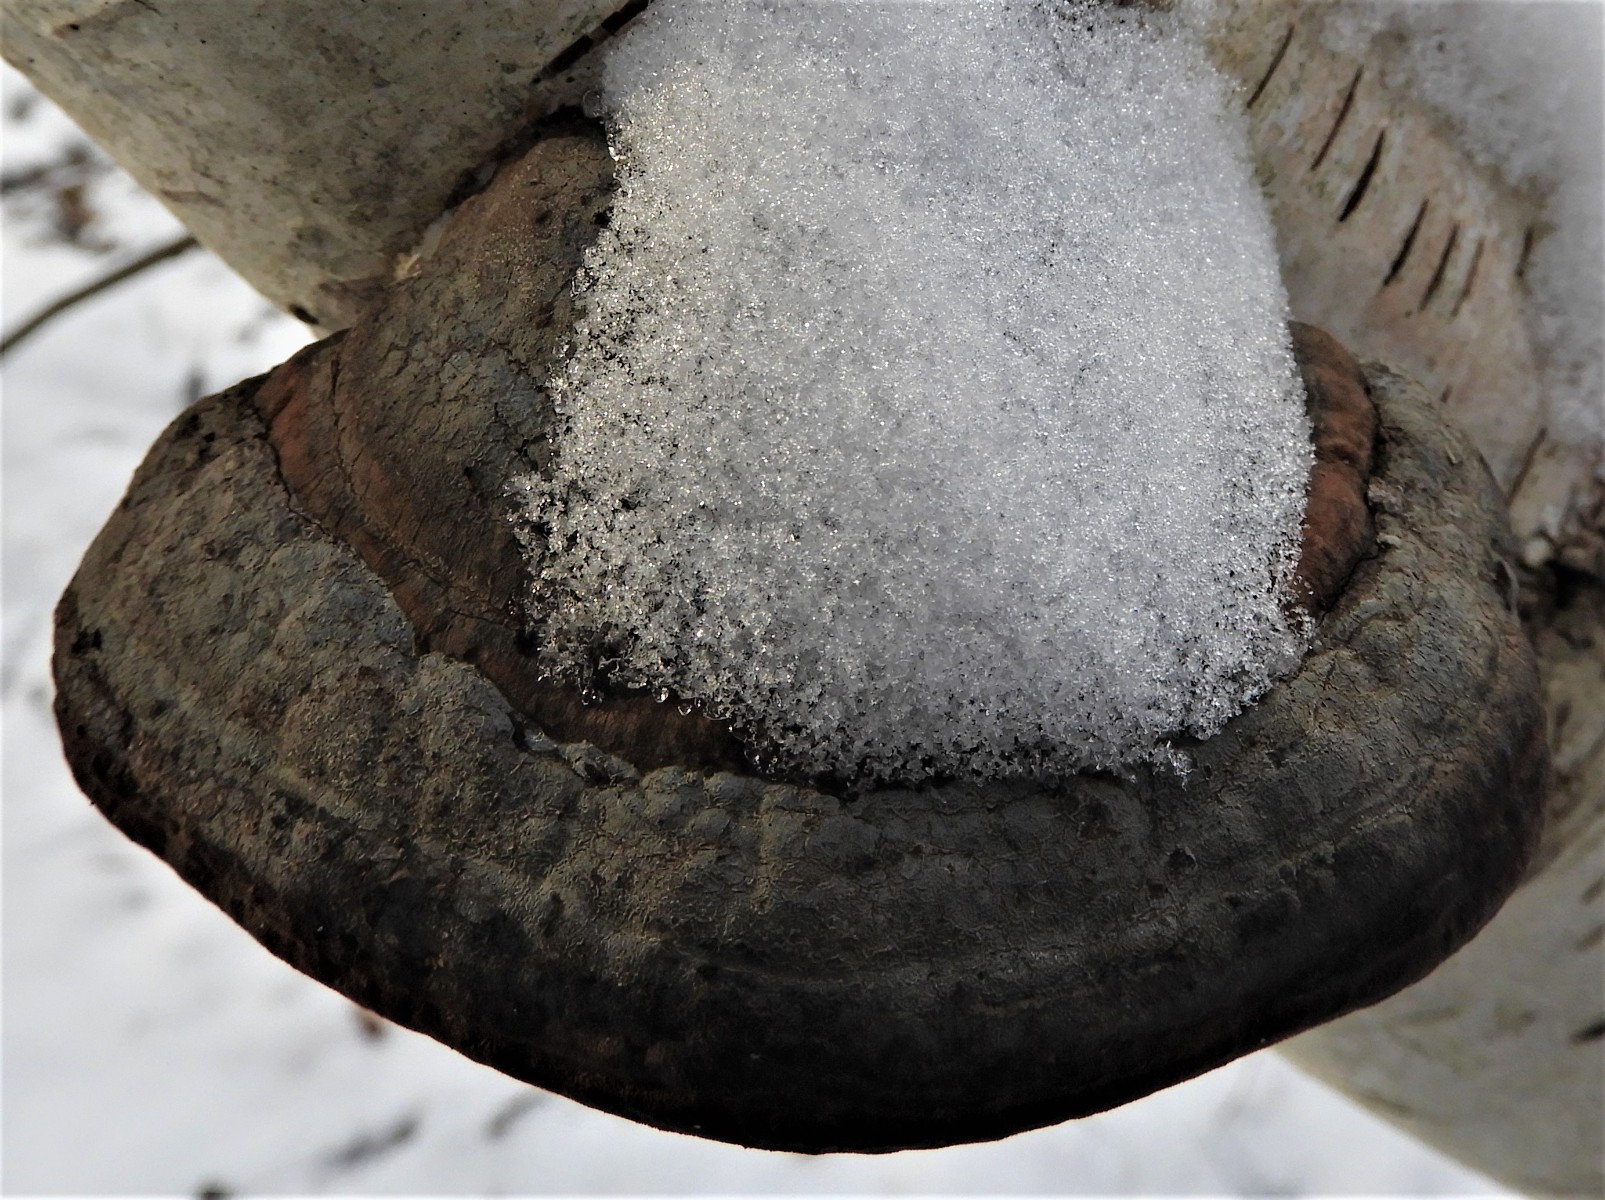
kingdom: Fungi
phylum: Basidiomycota
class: Agaricomycetes
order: Polyporales
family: Polyporaceae
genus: Fomes
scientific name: Fomes fomentarius
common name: tøndersvamp
